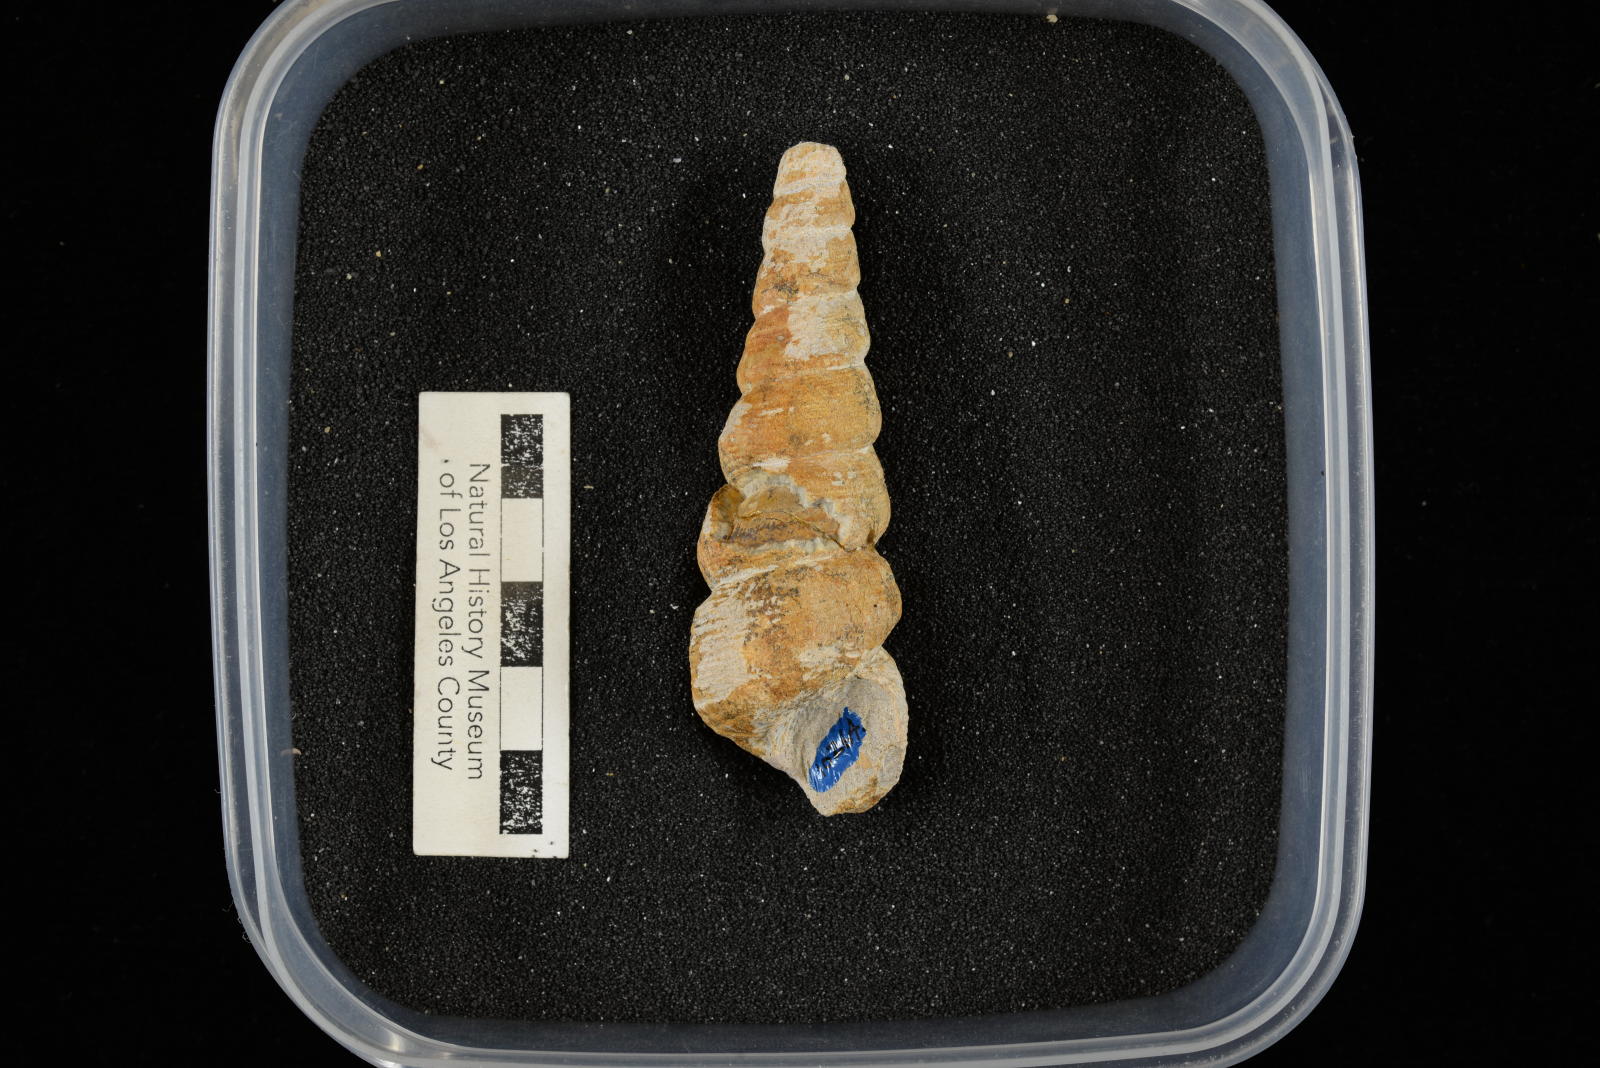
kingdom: Animalia
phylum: Mollusca
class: Gastropoda
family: Turritellidae
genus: Turritella
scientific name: Turritella chaneyi
